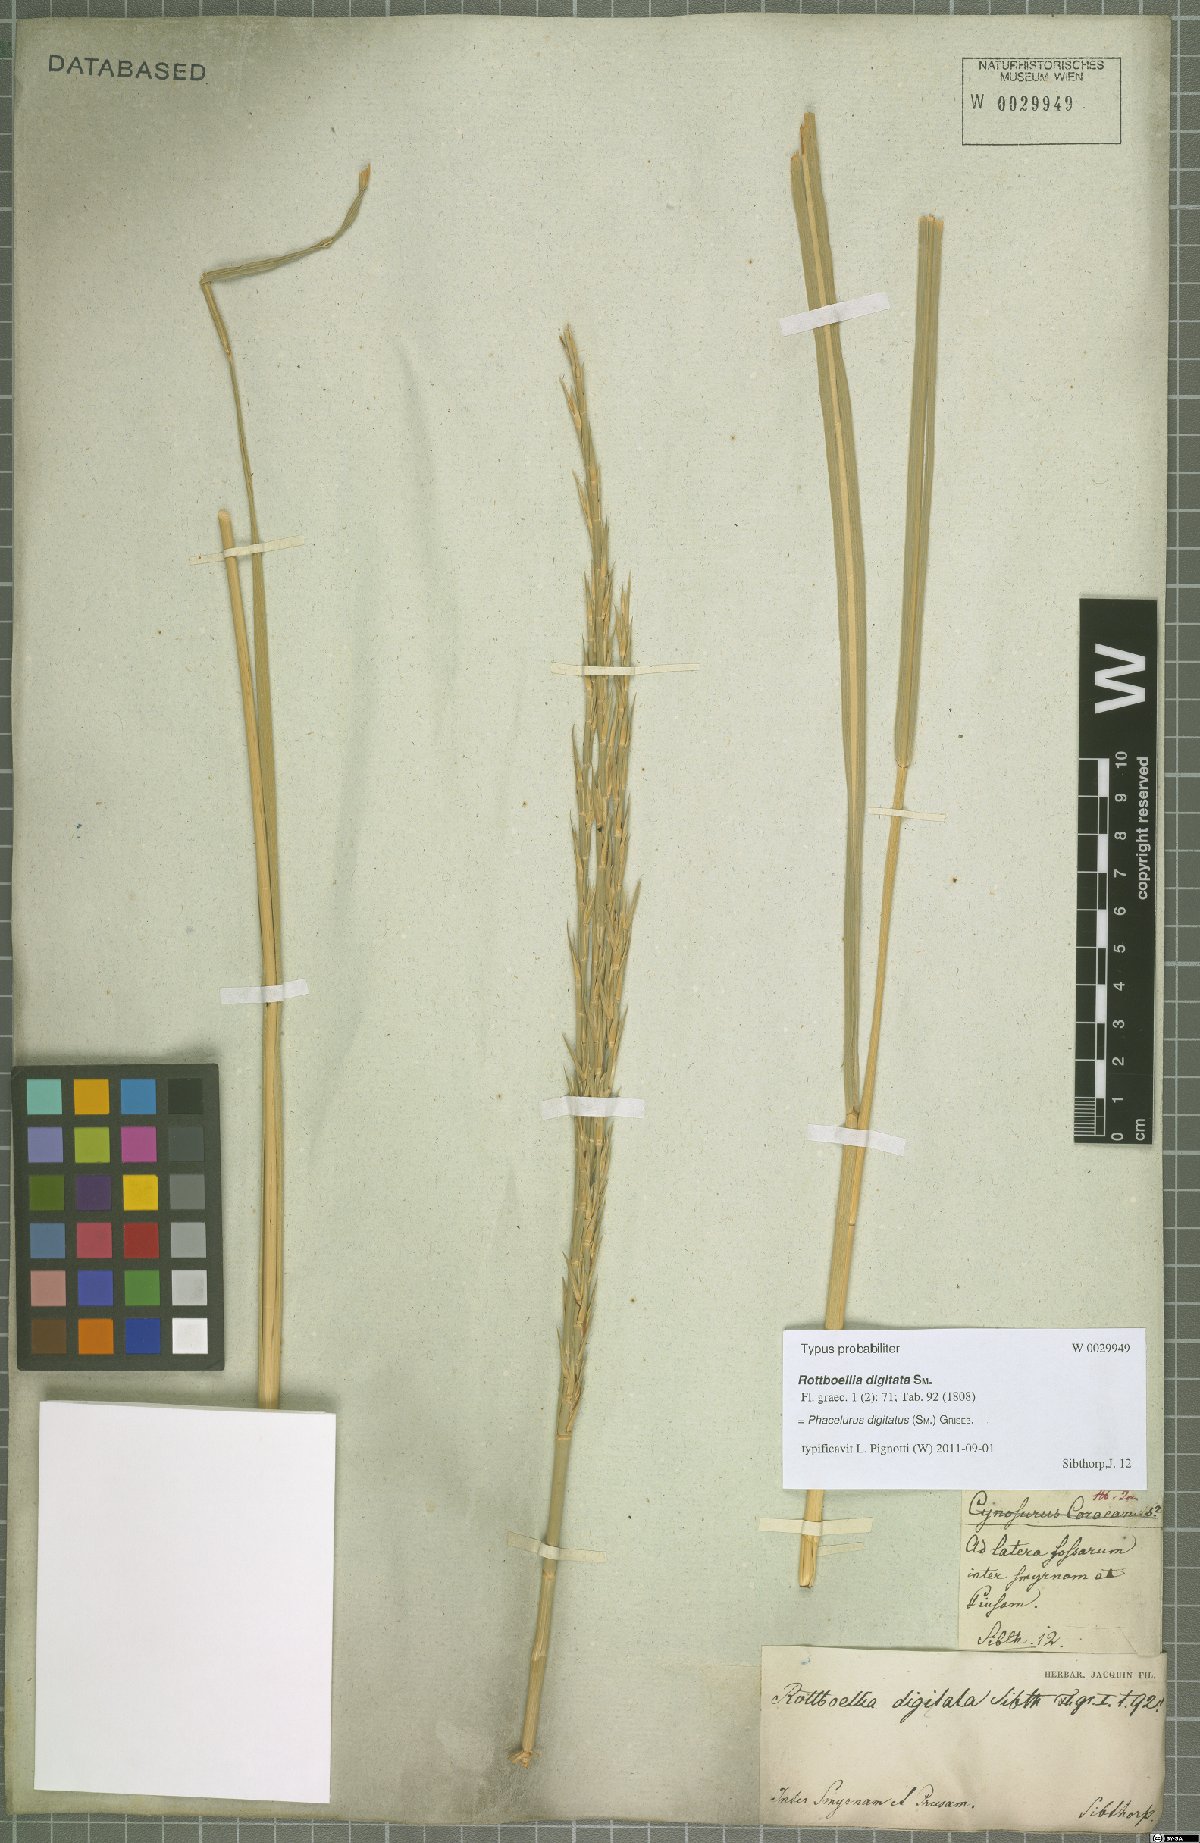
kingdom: Plantae
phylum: Tracheophyta
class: Liliopsida
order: Poales
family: Poaceae
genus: Phacelurus
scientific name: Phacelurus digitatus
